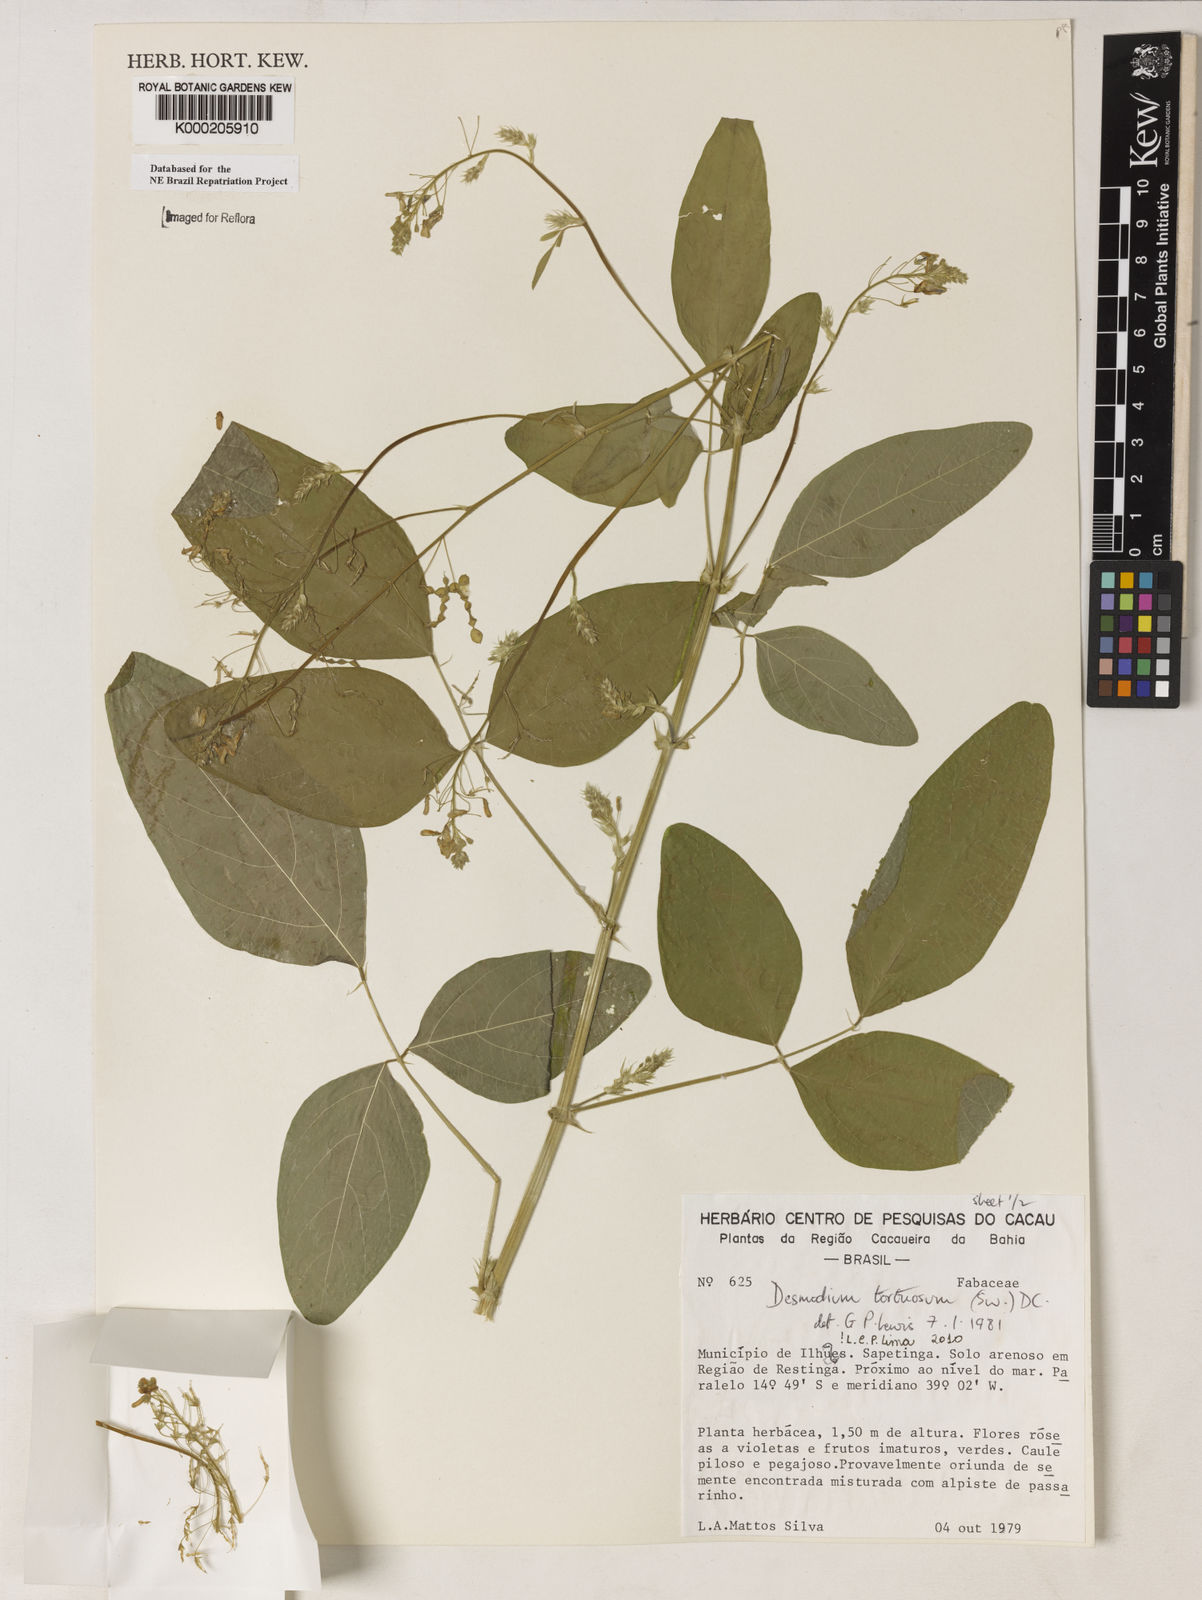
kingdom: Plantae
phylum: Tracheophyta
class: Magnoliopsida
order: Fabales
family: Fabaceae
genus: Desmodium
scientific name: Desmodium tortuosum
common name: Dixie ticktrefoil
